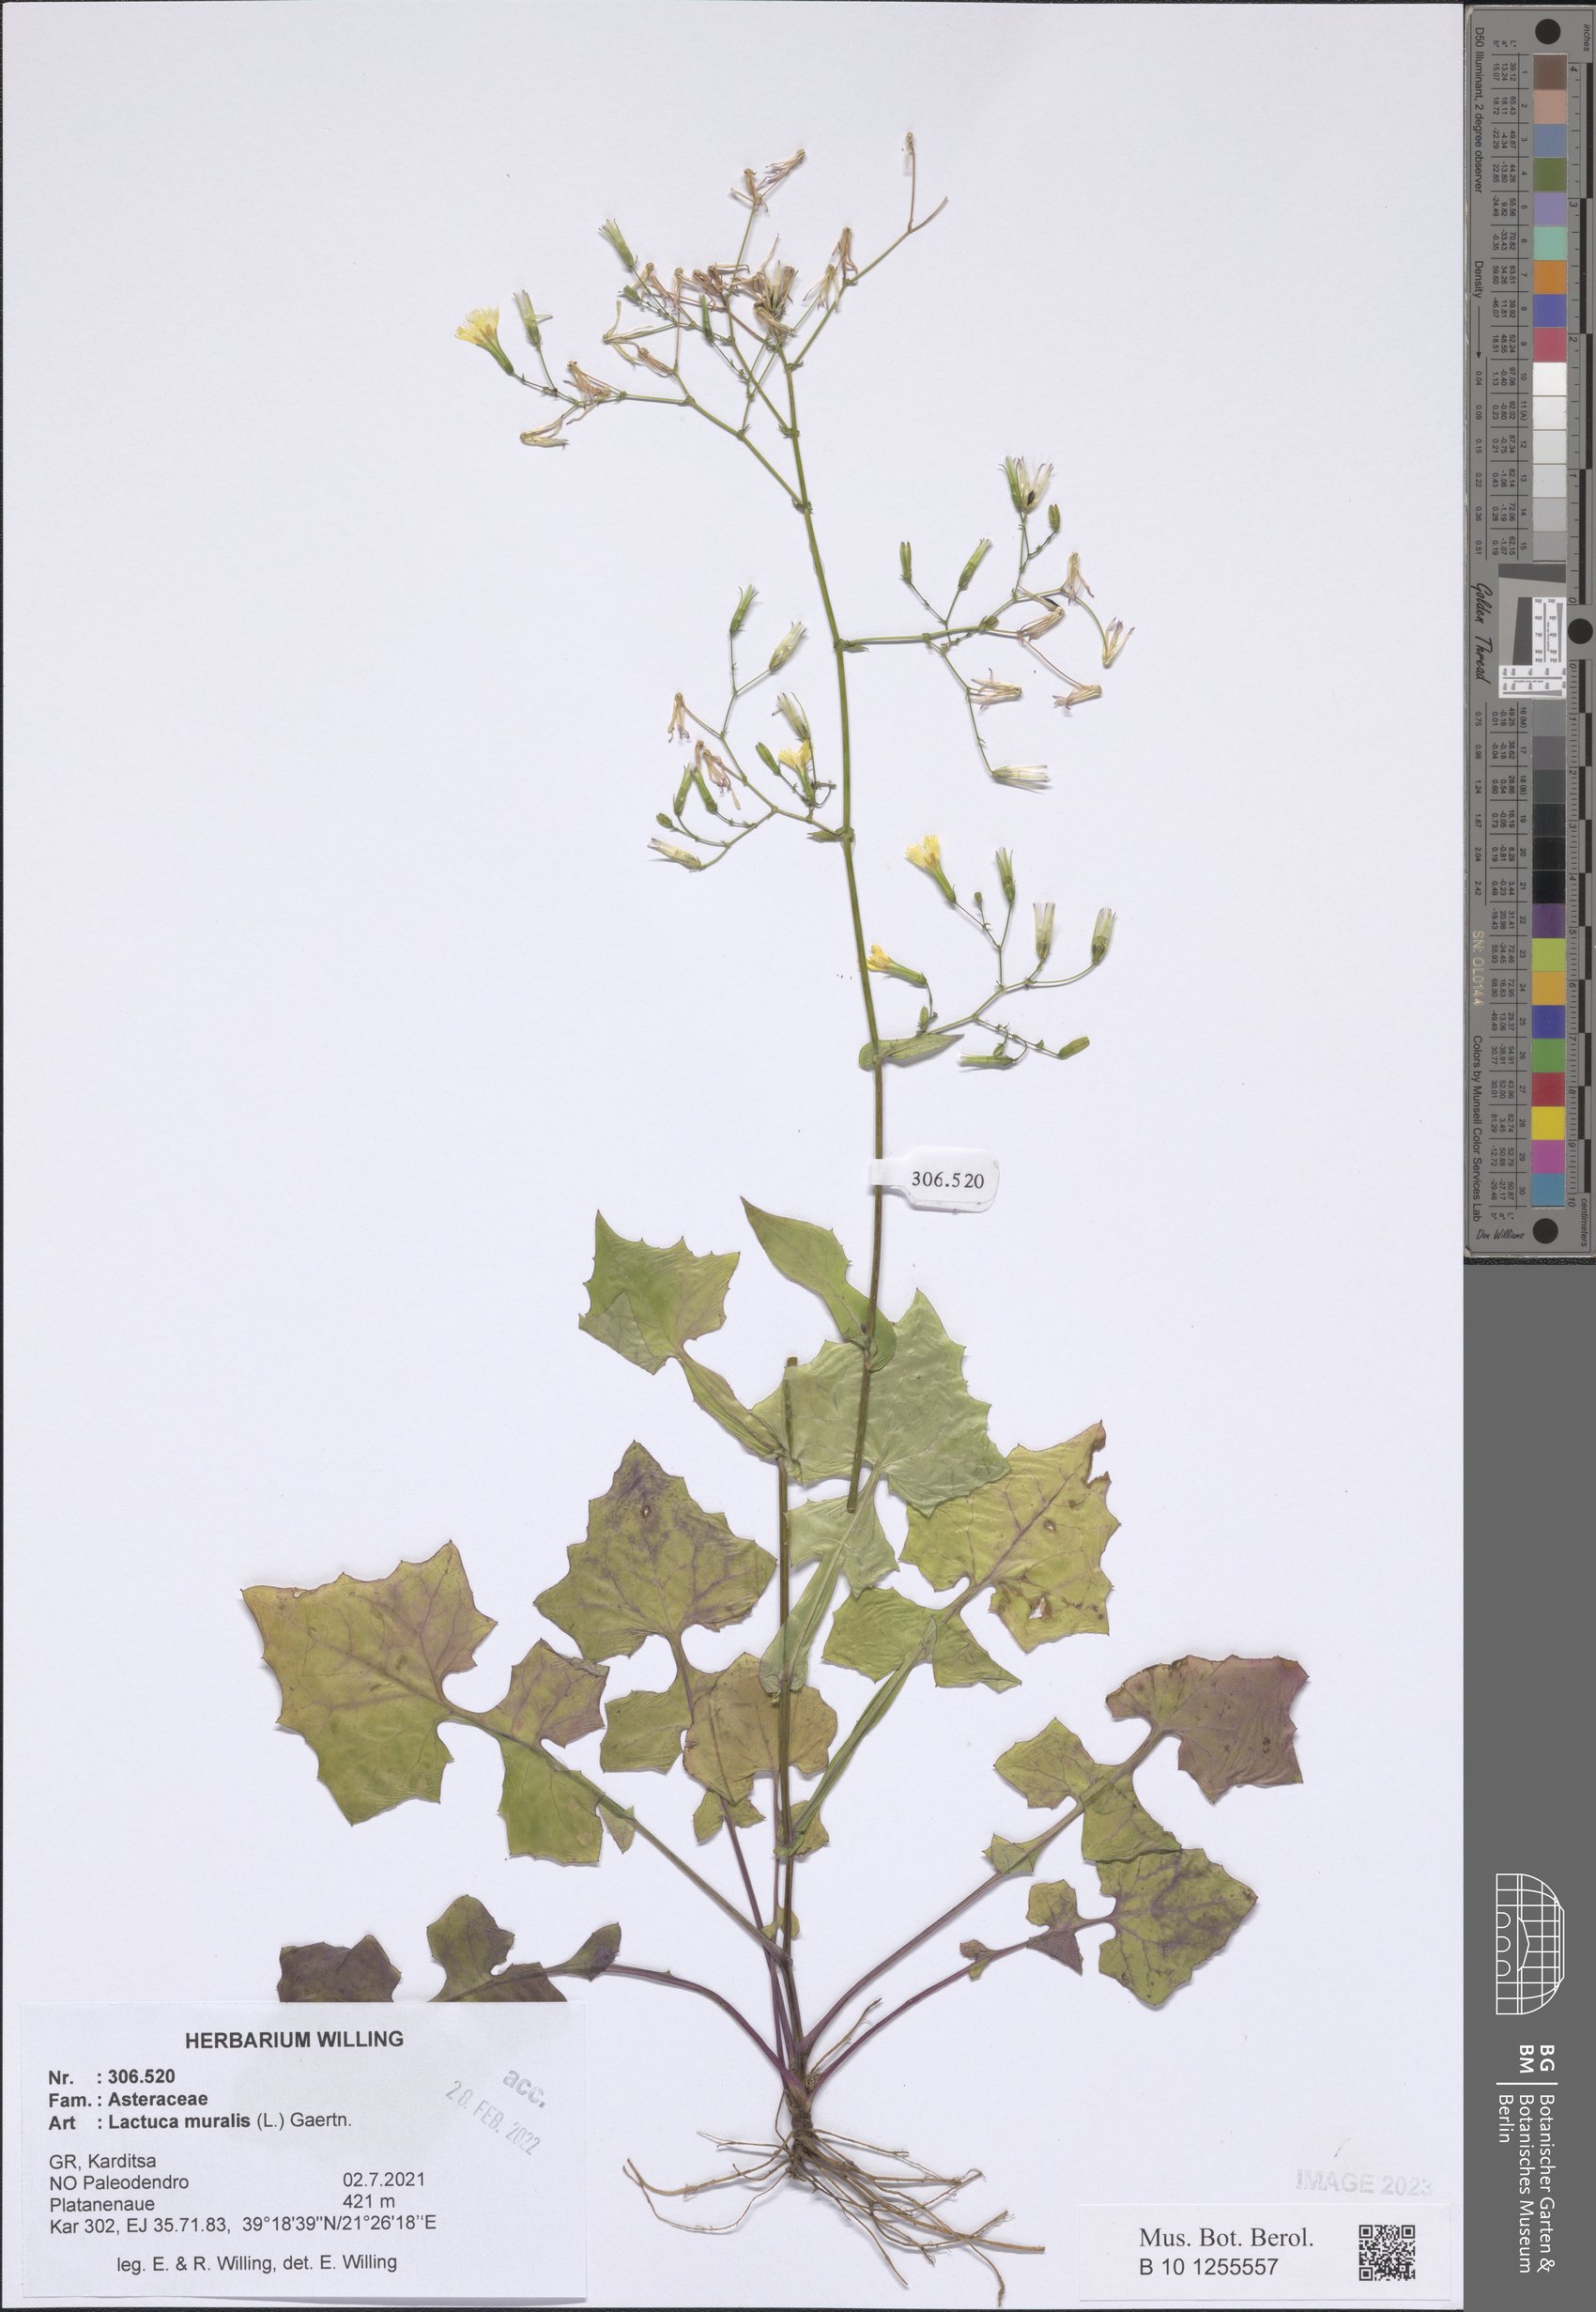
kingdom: Plantae
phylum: Tracheophyta
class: Magnoliopsida
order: Asterales
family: Asteraceae
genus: Mycelis
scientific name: Mycelis muralis
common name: Wall lettuce
